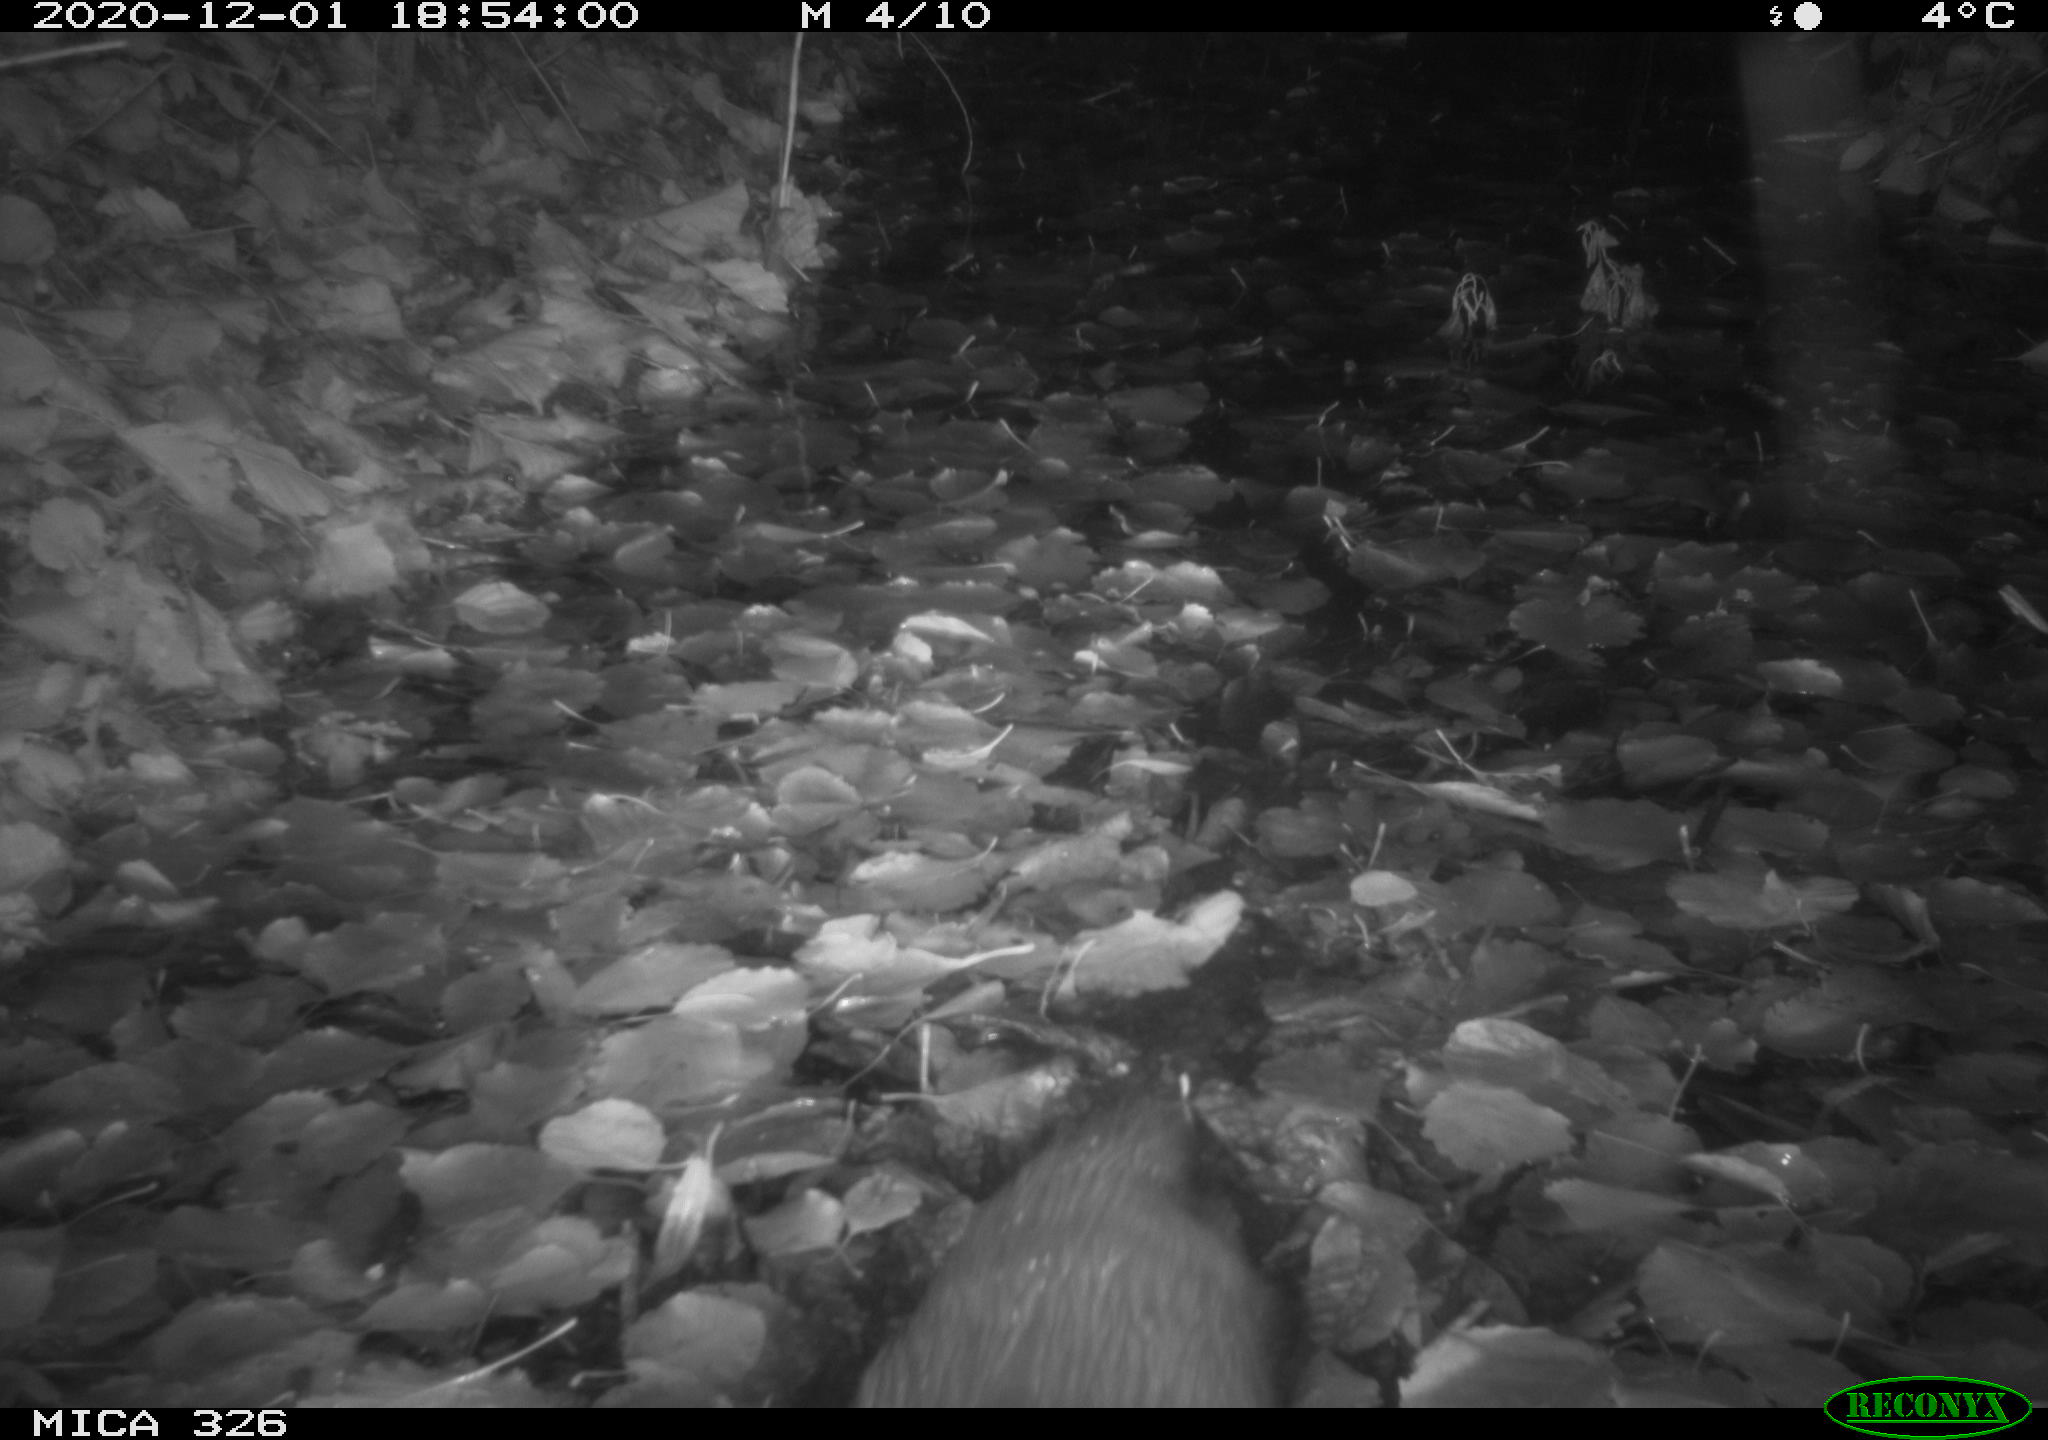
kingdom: Animalia
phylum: Chordata
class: Mammalia
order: Carnivora
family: Mustelidae
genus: Lutra
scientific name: Lutra lutra
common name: European otter
